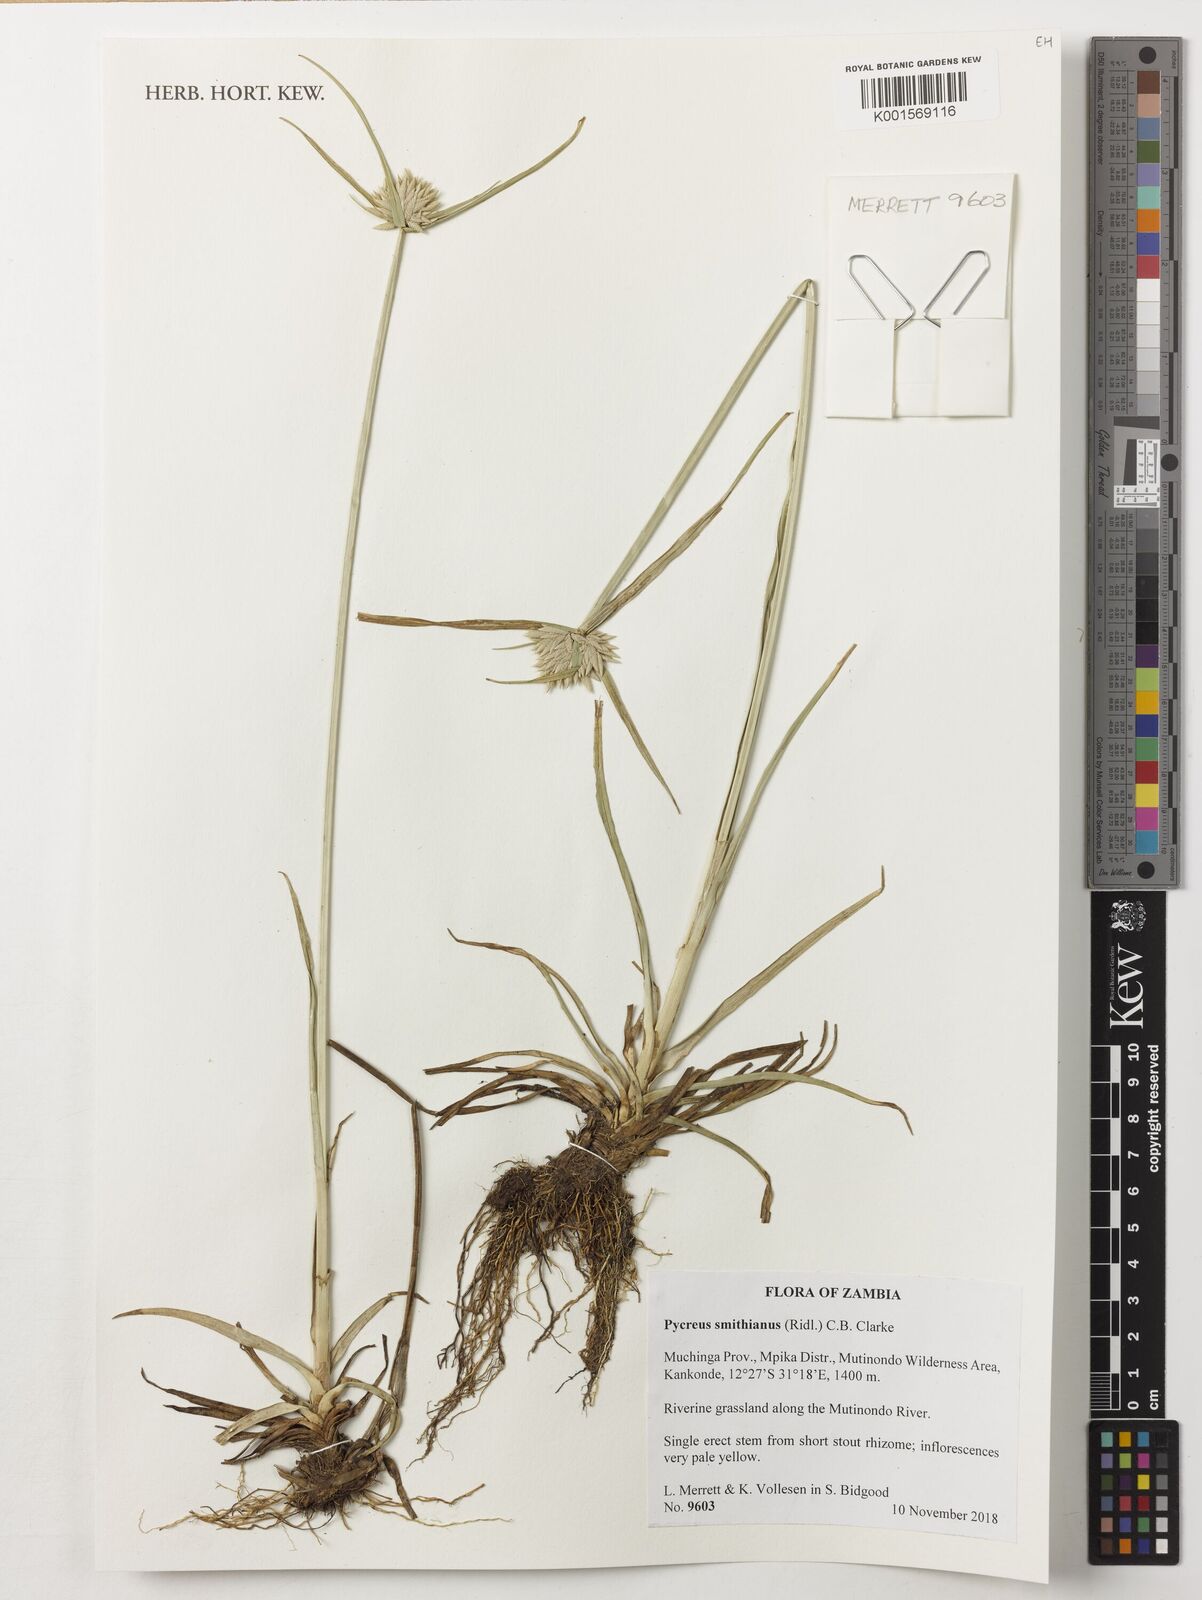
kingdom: Plantae
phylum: Tracheophyta
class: Liliopsida
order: Poales
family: Cyperaceae
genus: Cyperus
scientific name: Cyperus smithianus
